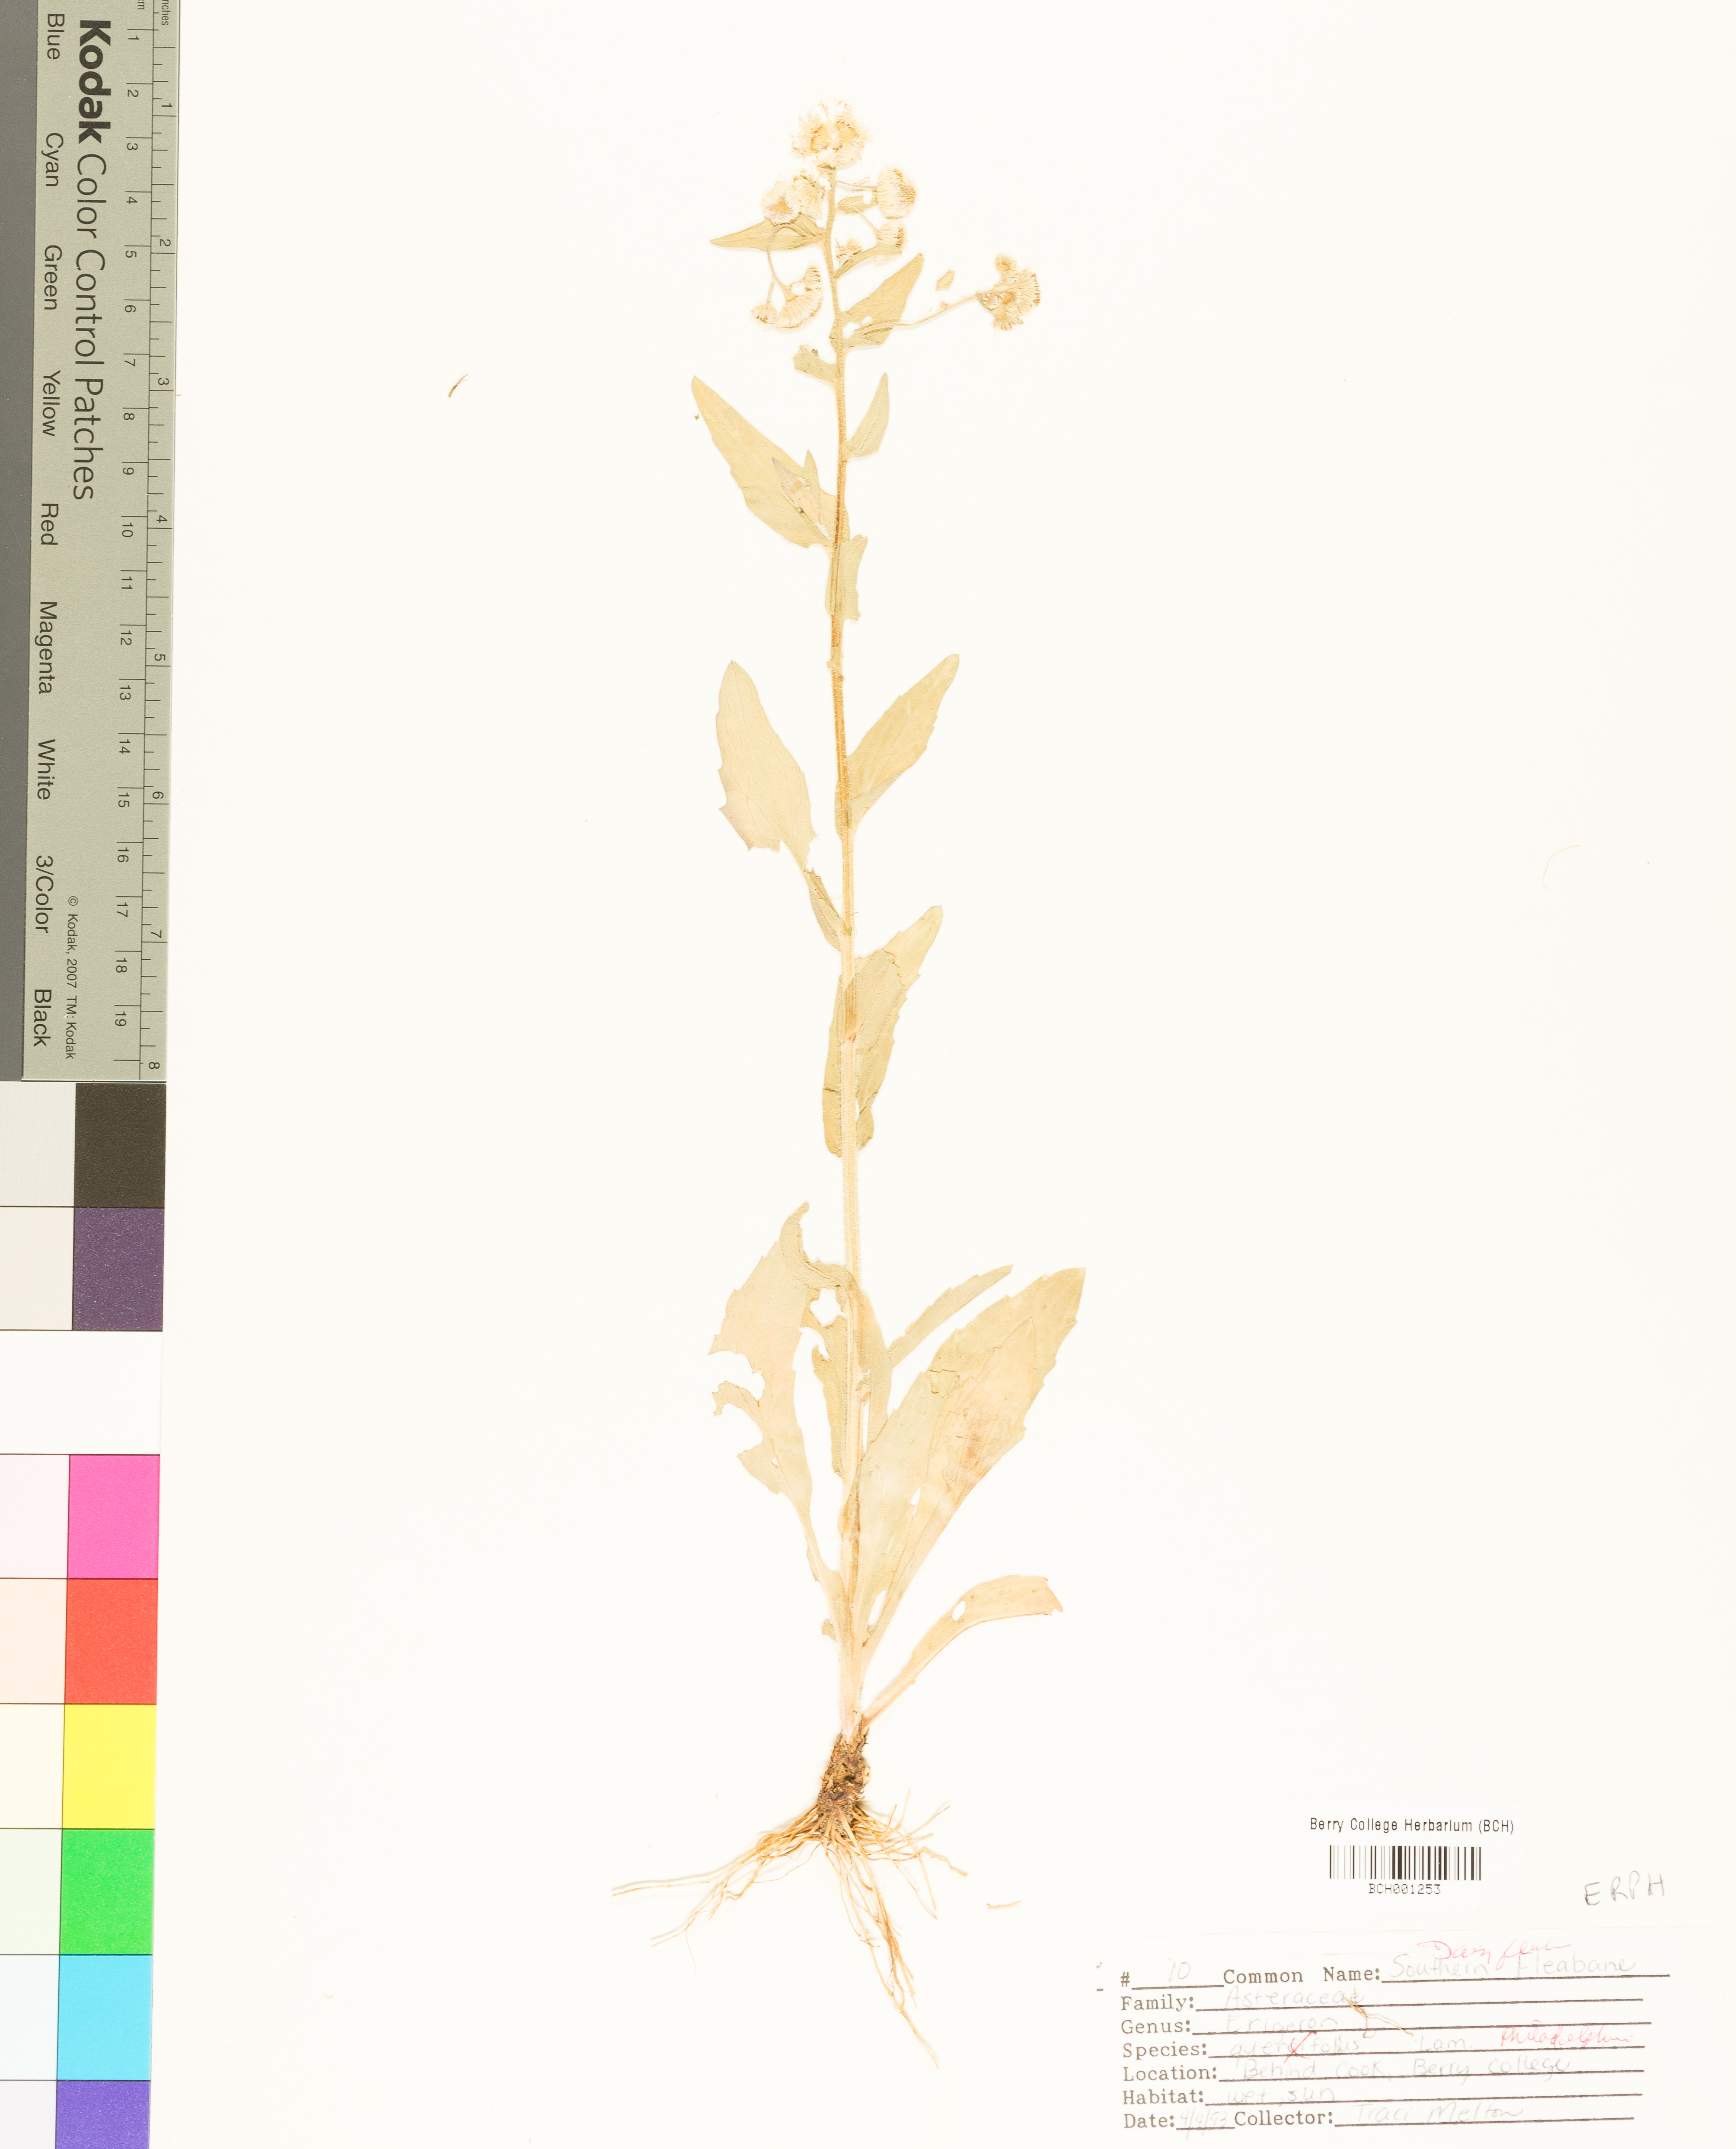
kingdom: Plantae
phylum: Tracheophyta
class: Magnoliopsida
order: Asterales
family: Asteraceae
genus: Erigeron
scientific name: Erigeron philadelphicus
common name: Robin's-plantain
